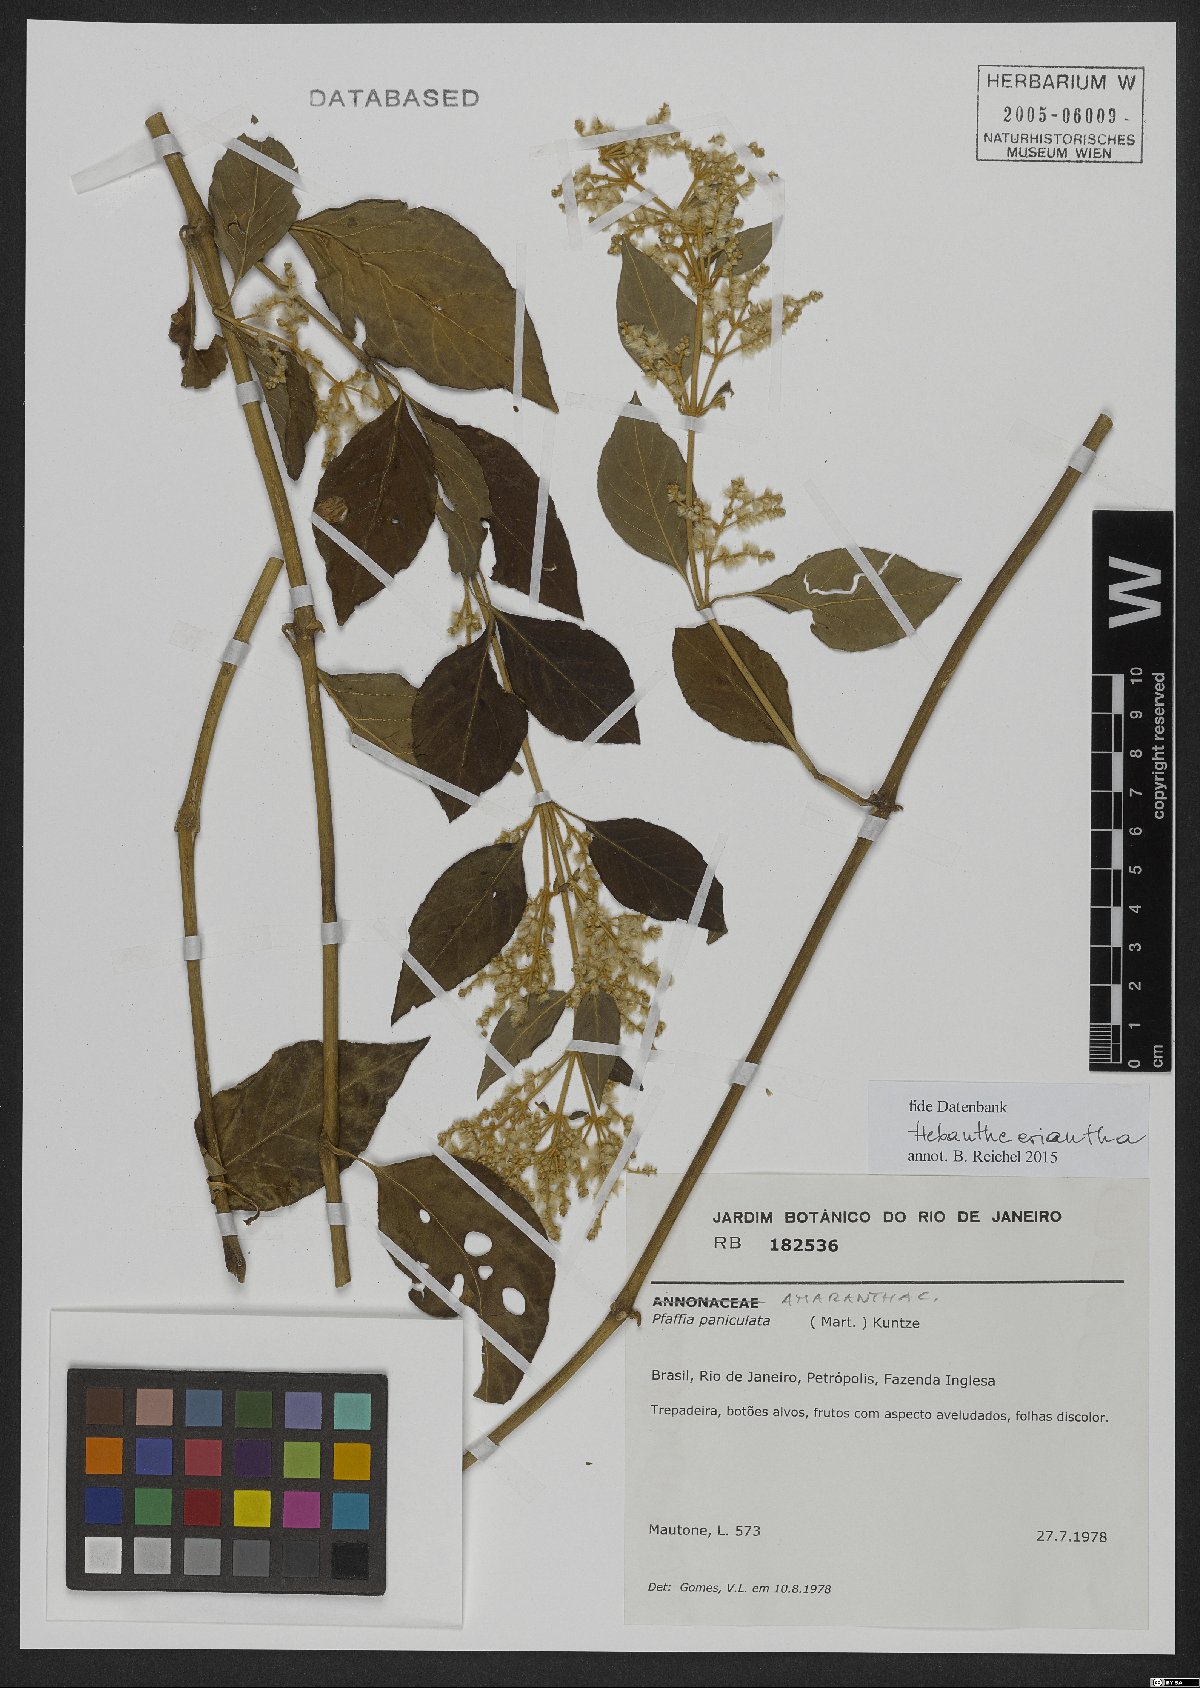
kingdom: Plantae
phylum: Tracheophyta
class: Magnoliopsida
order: Caryophyllales
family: Amaranthaceae
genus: Hebanthe
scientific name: Hebanthe erianthos
